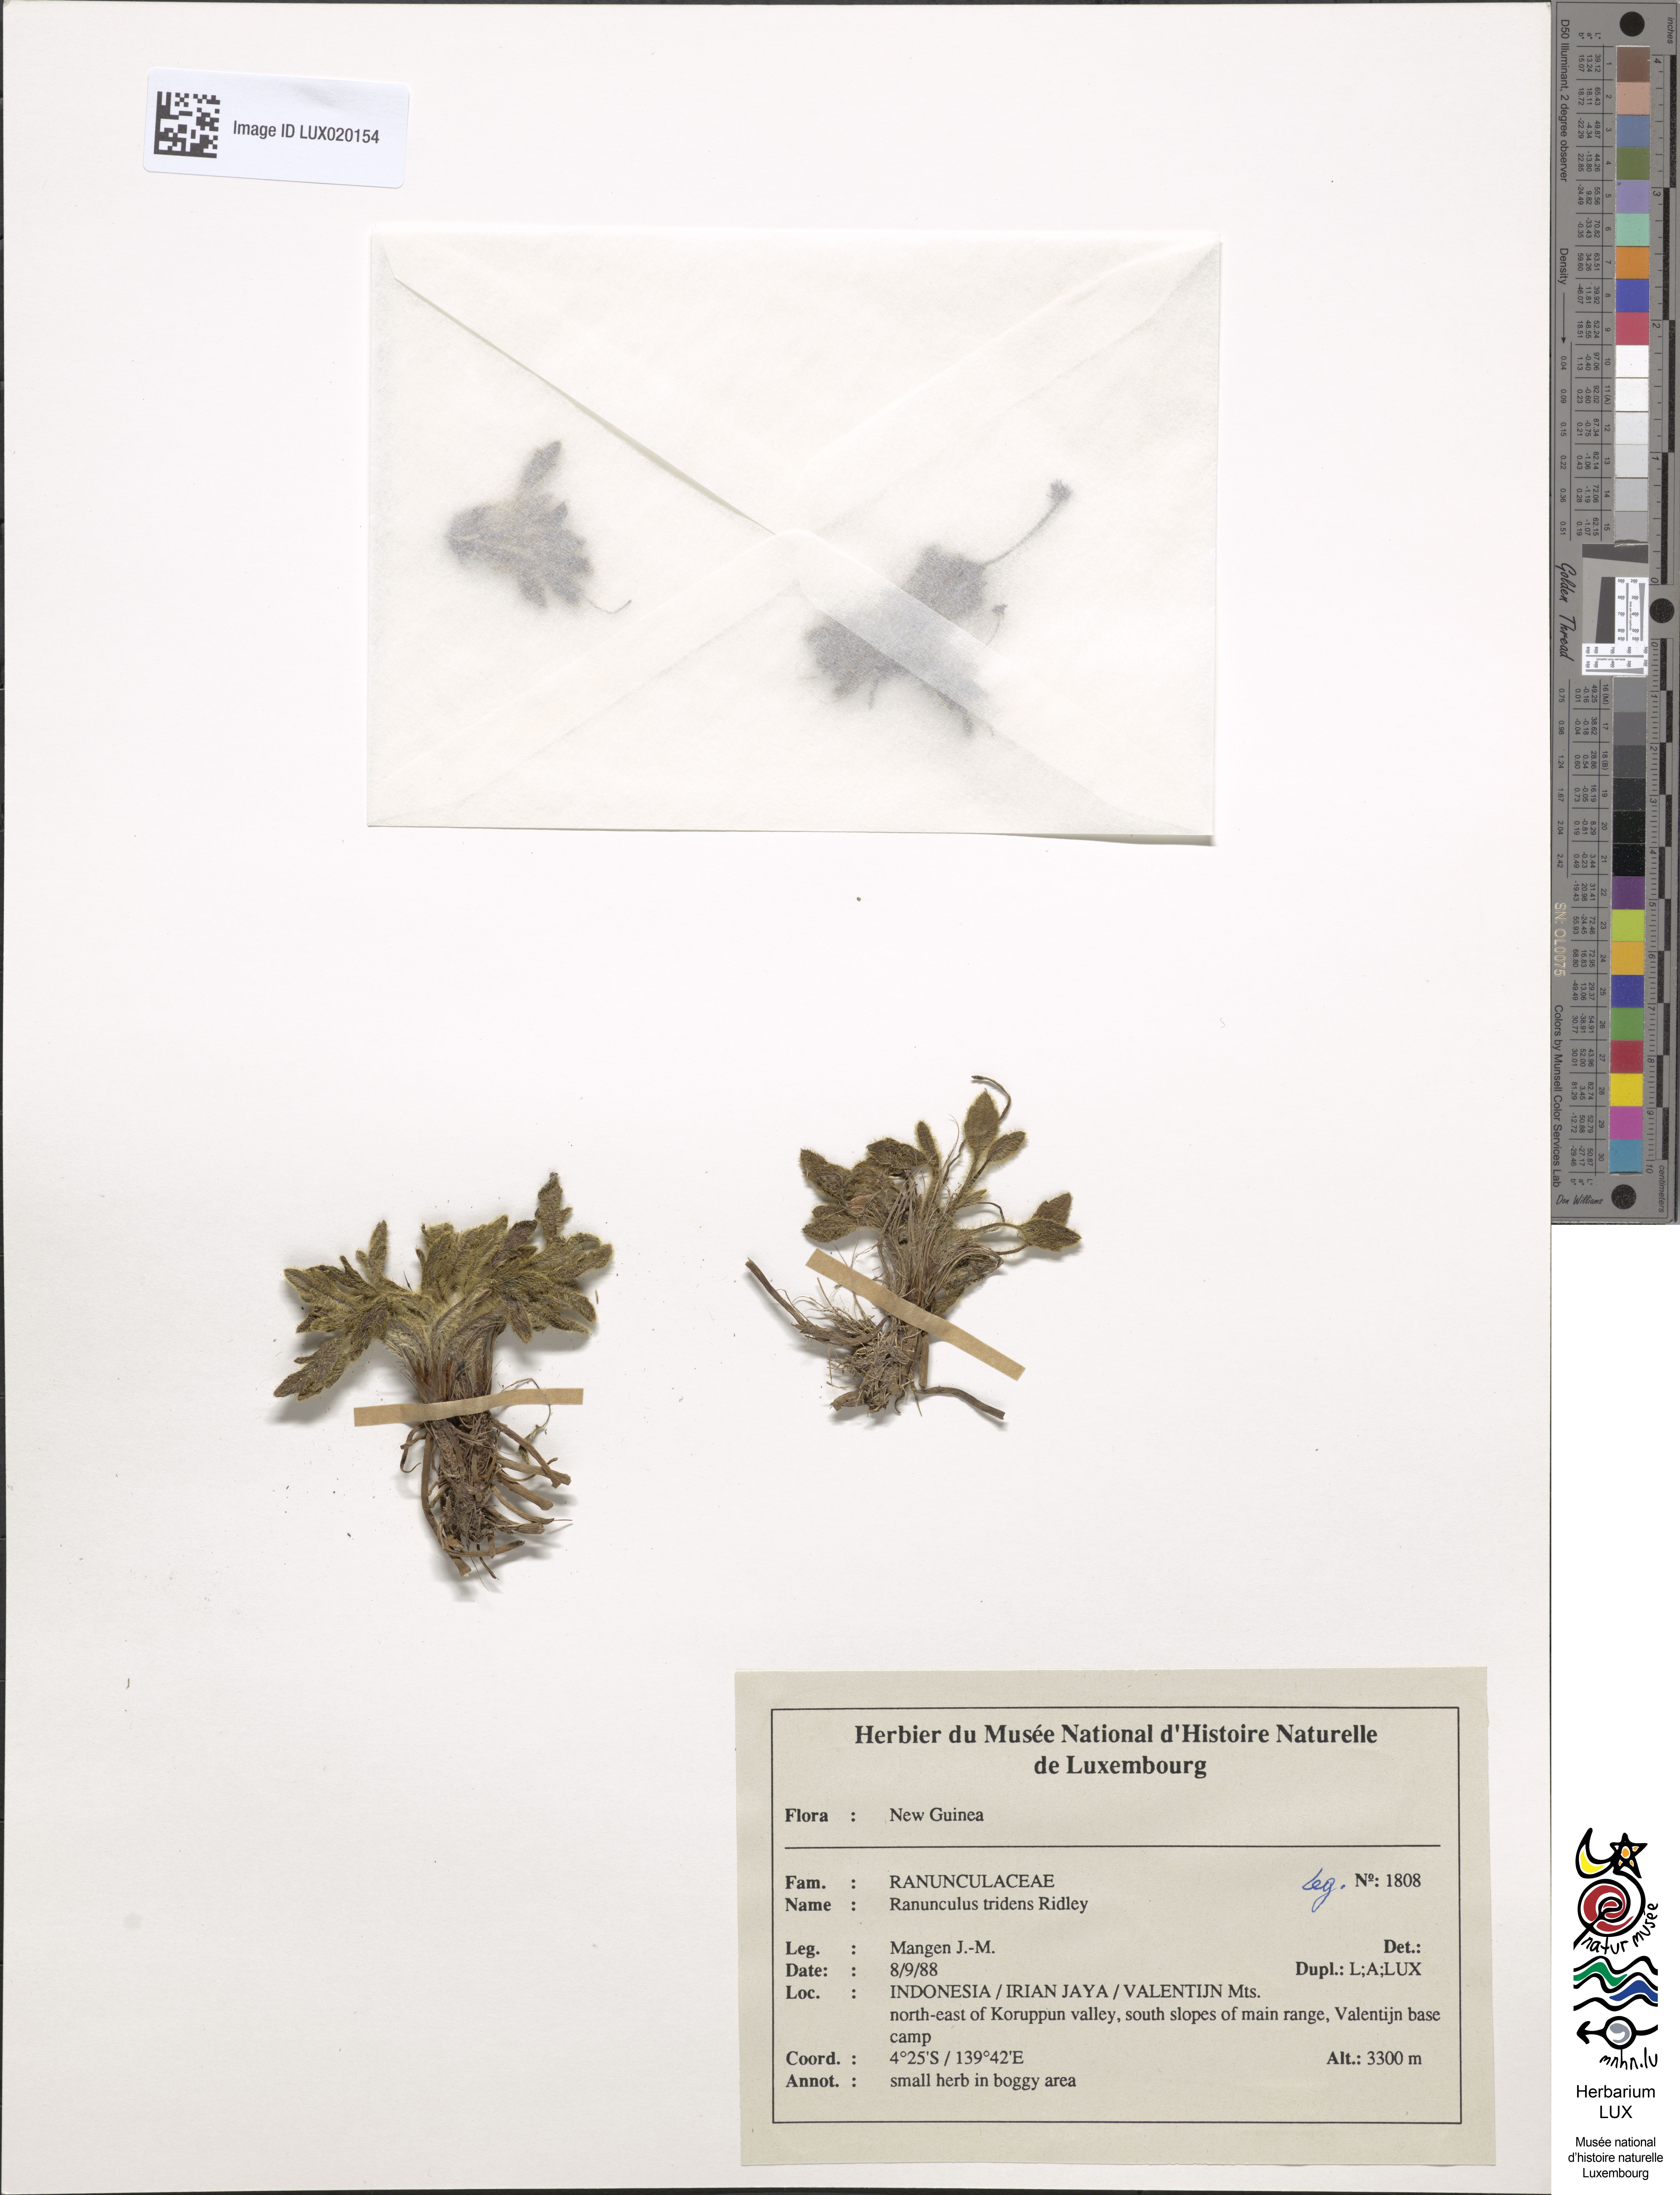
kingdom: Plantae
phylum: Tracheophyta
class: Magnoliopsida
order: Ranunculales
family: Ranunculaceae
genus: Ranunculus
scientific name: Ranunculus tridens
